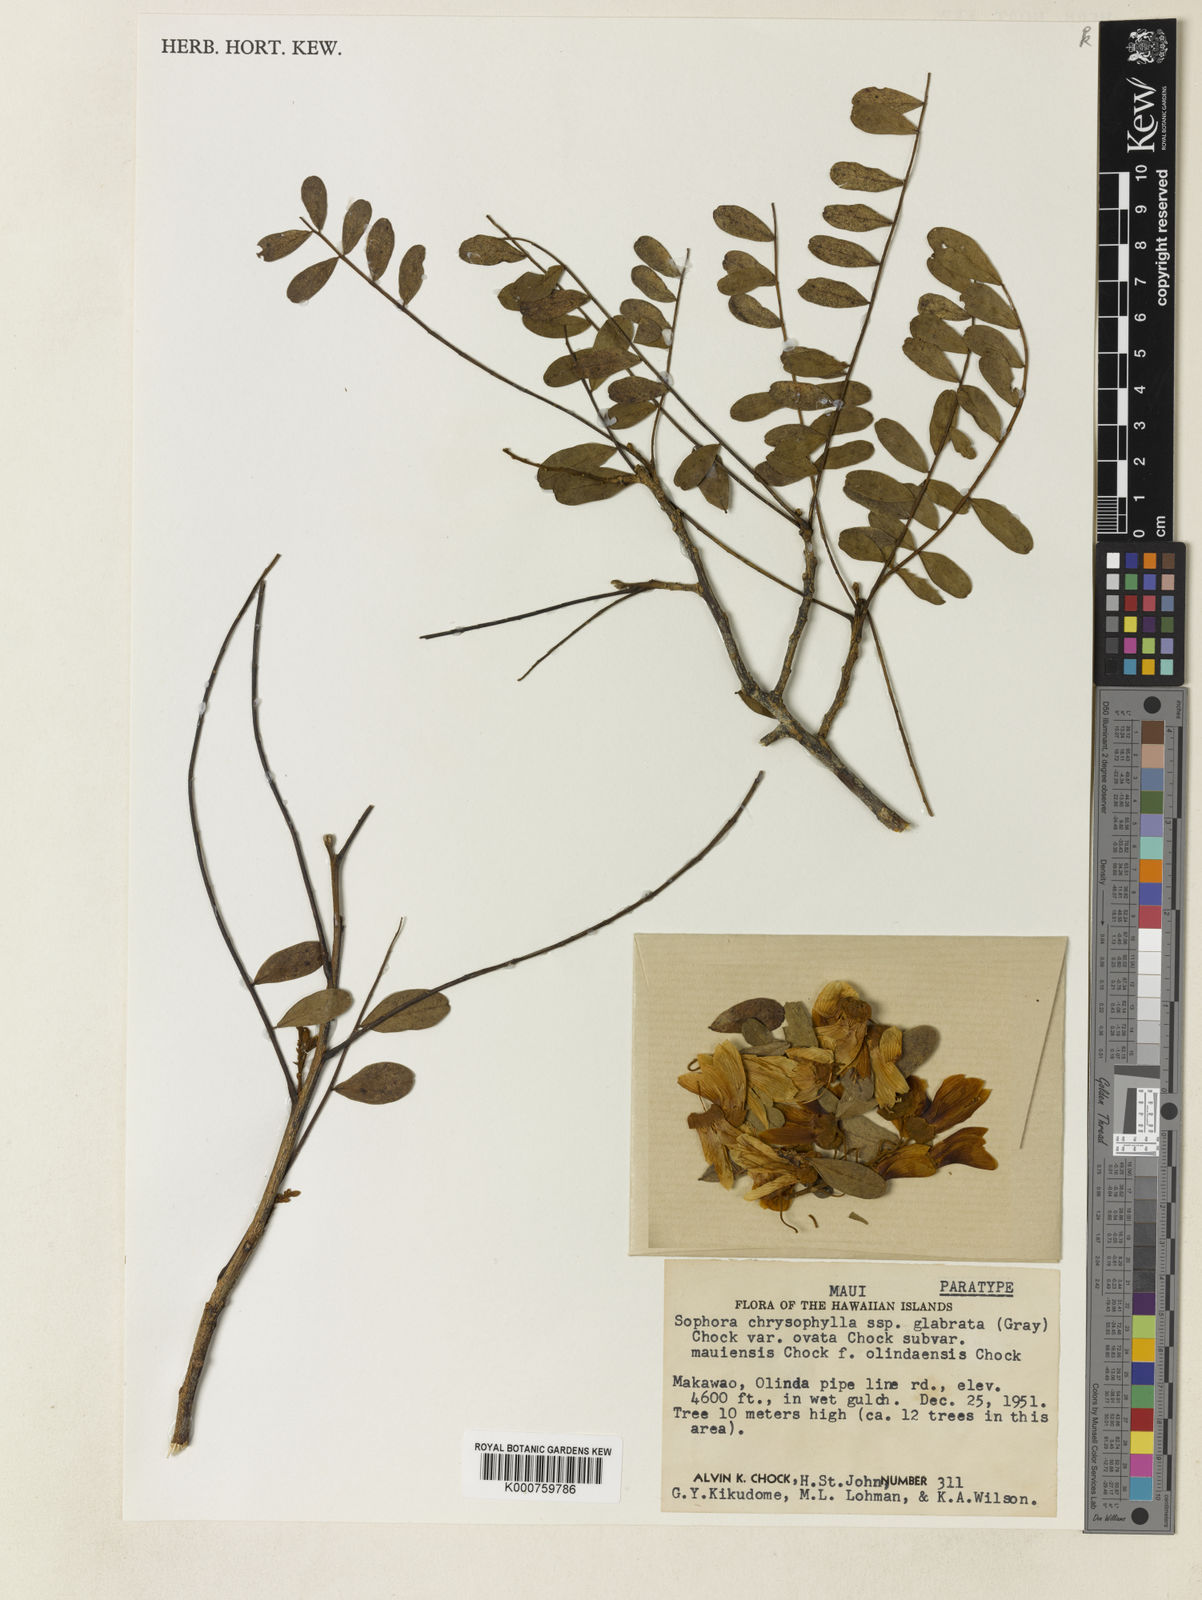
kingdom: Plantae
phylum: Tracheophyta
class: Magnoliopsida
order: Fabales
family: Fabaceae
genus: Sophora
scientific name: Sophora chrysophylla
